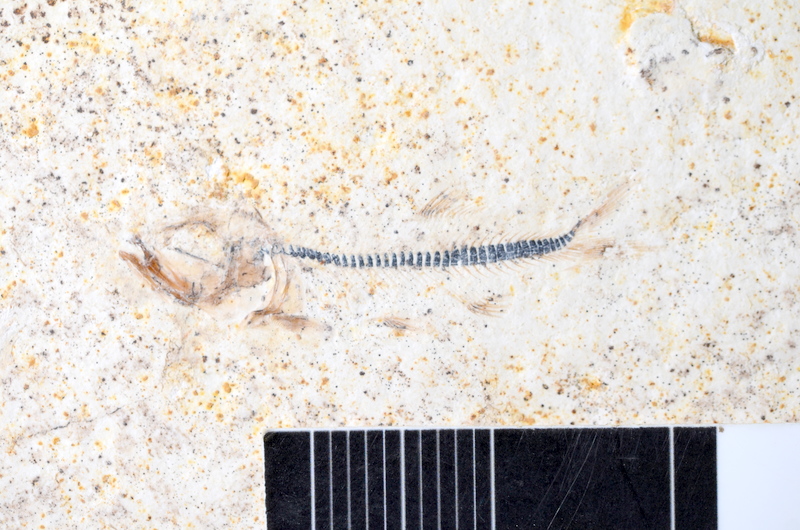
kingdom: Animalia
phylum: Chordata
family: Ascalaboidae
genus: Ebertichthys
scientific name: Ebertichthys ettlingensis
